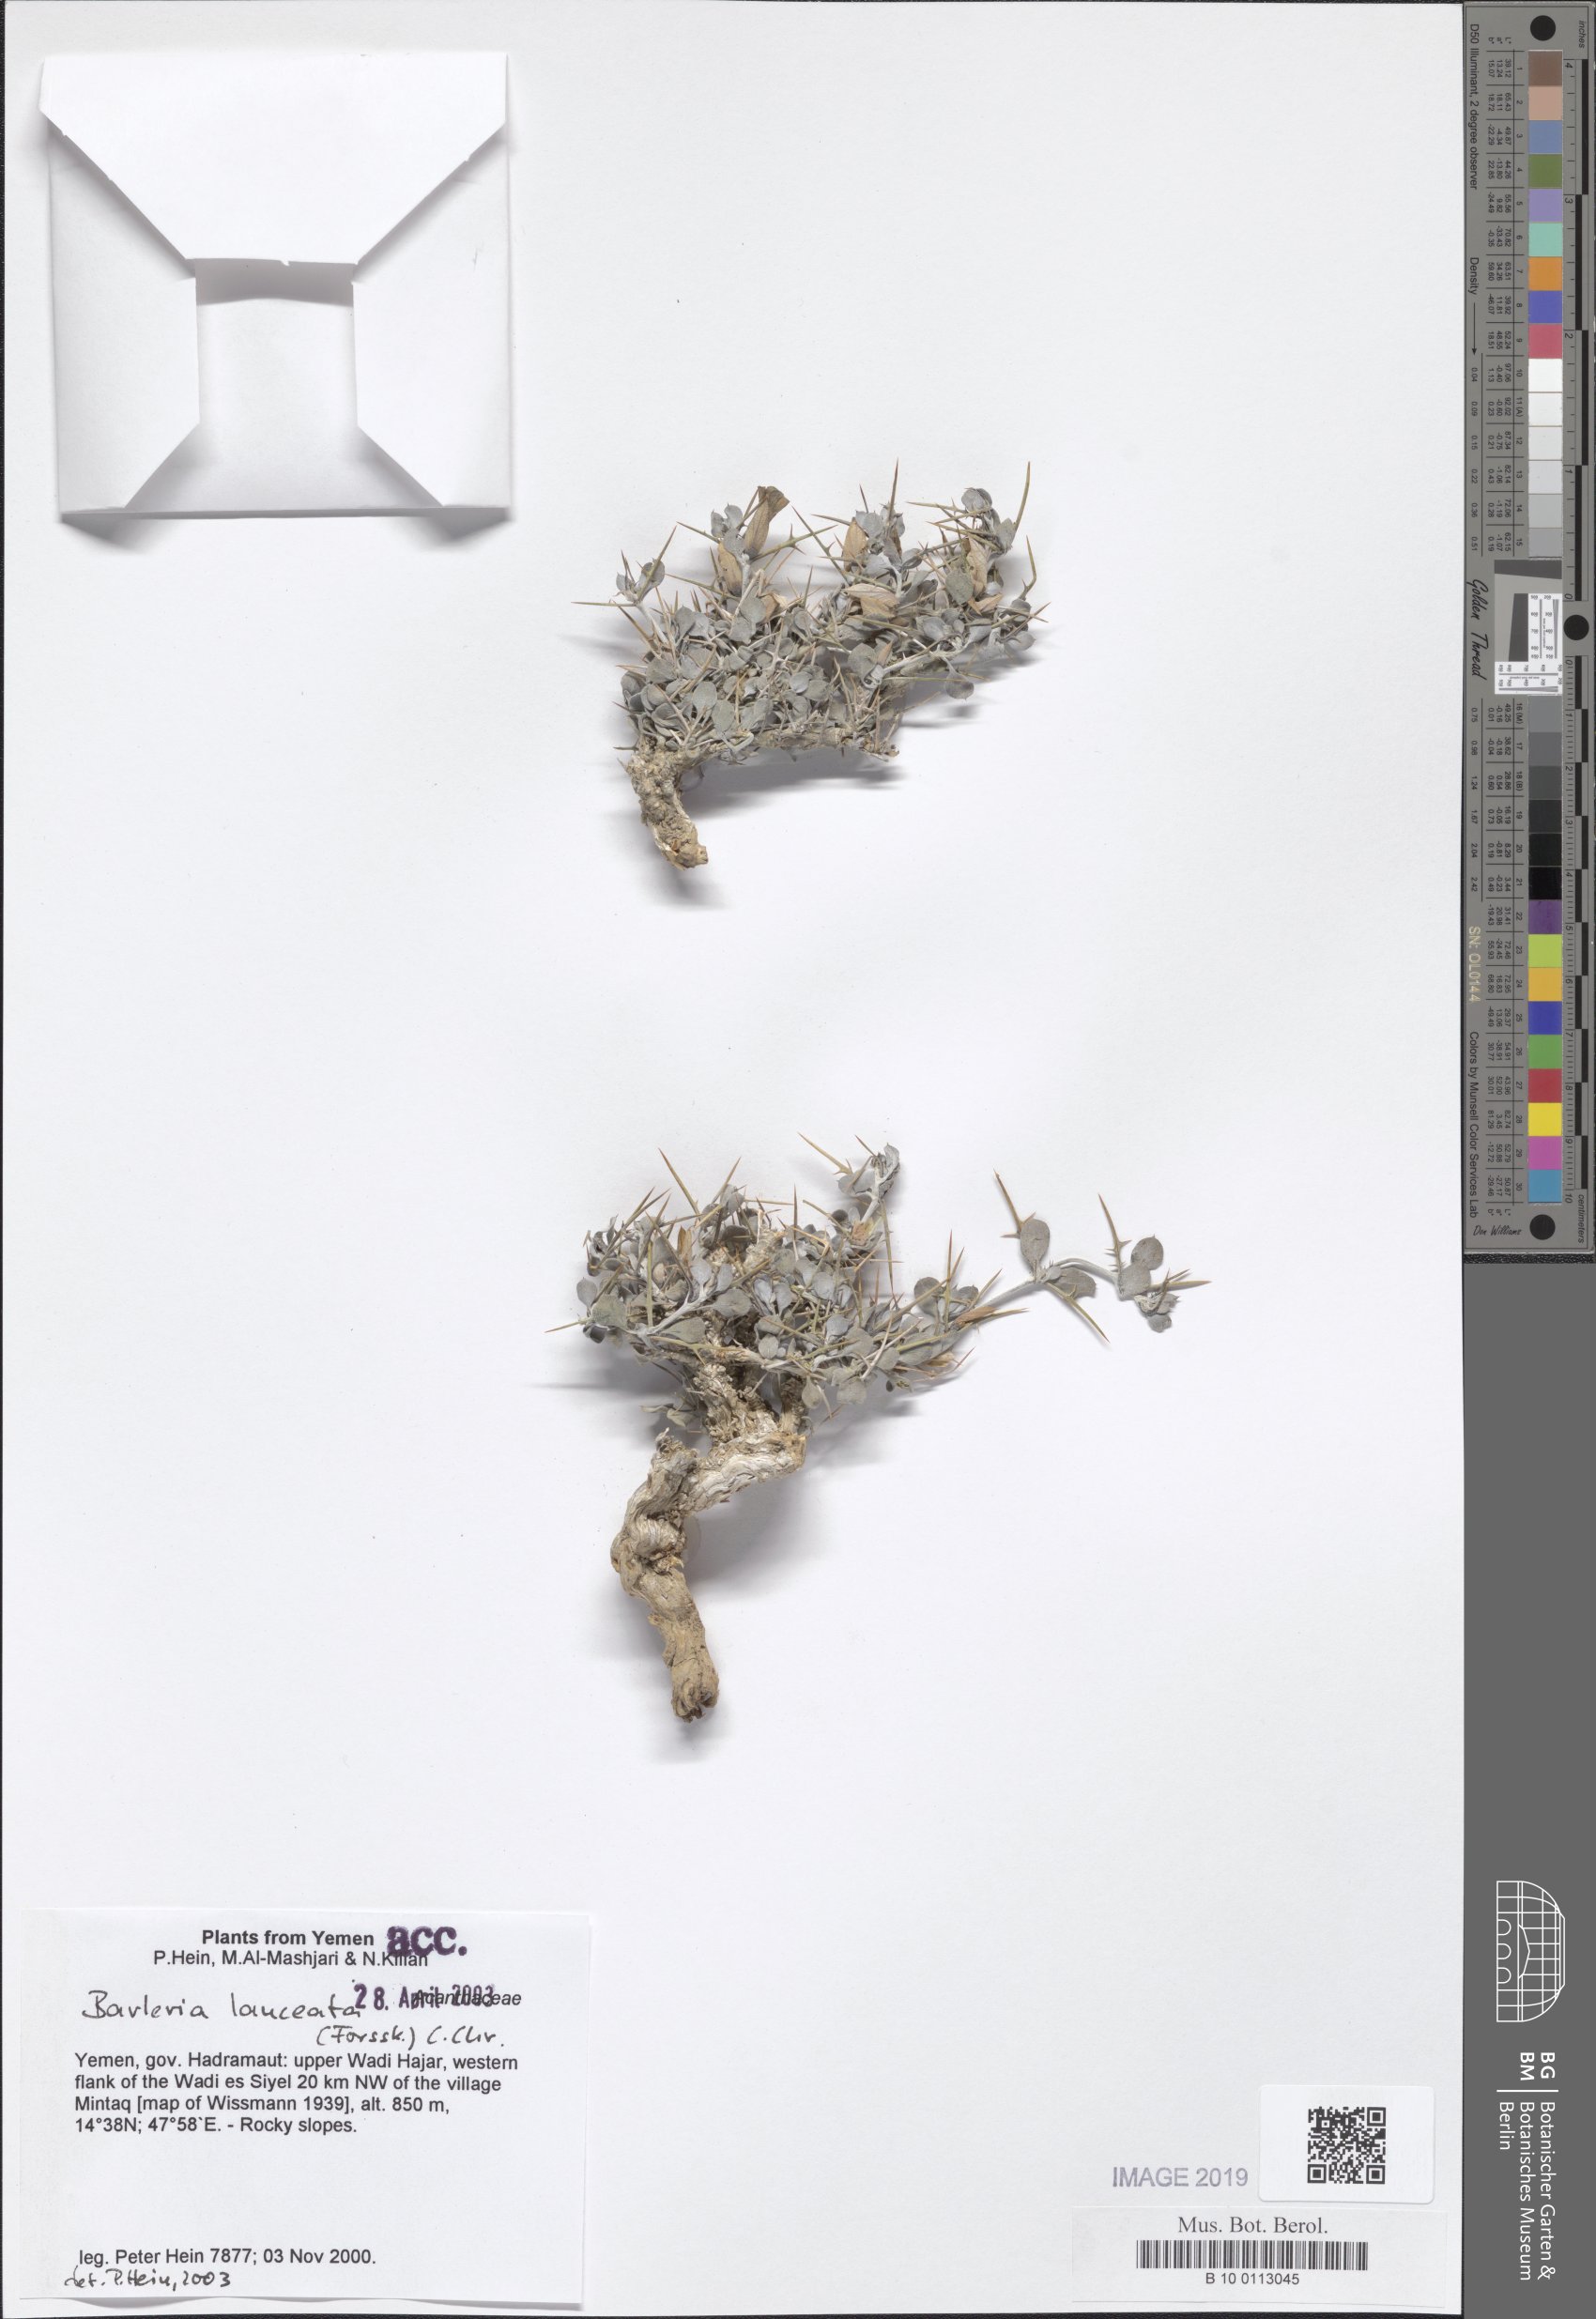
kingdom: Plantae
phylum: Tracheophyta
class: Magnoliopsida
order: Lamiales
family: Acanthaceae
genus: Barleria
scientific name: Barleria lanceata
